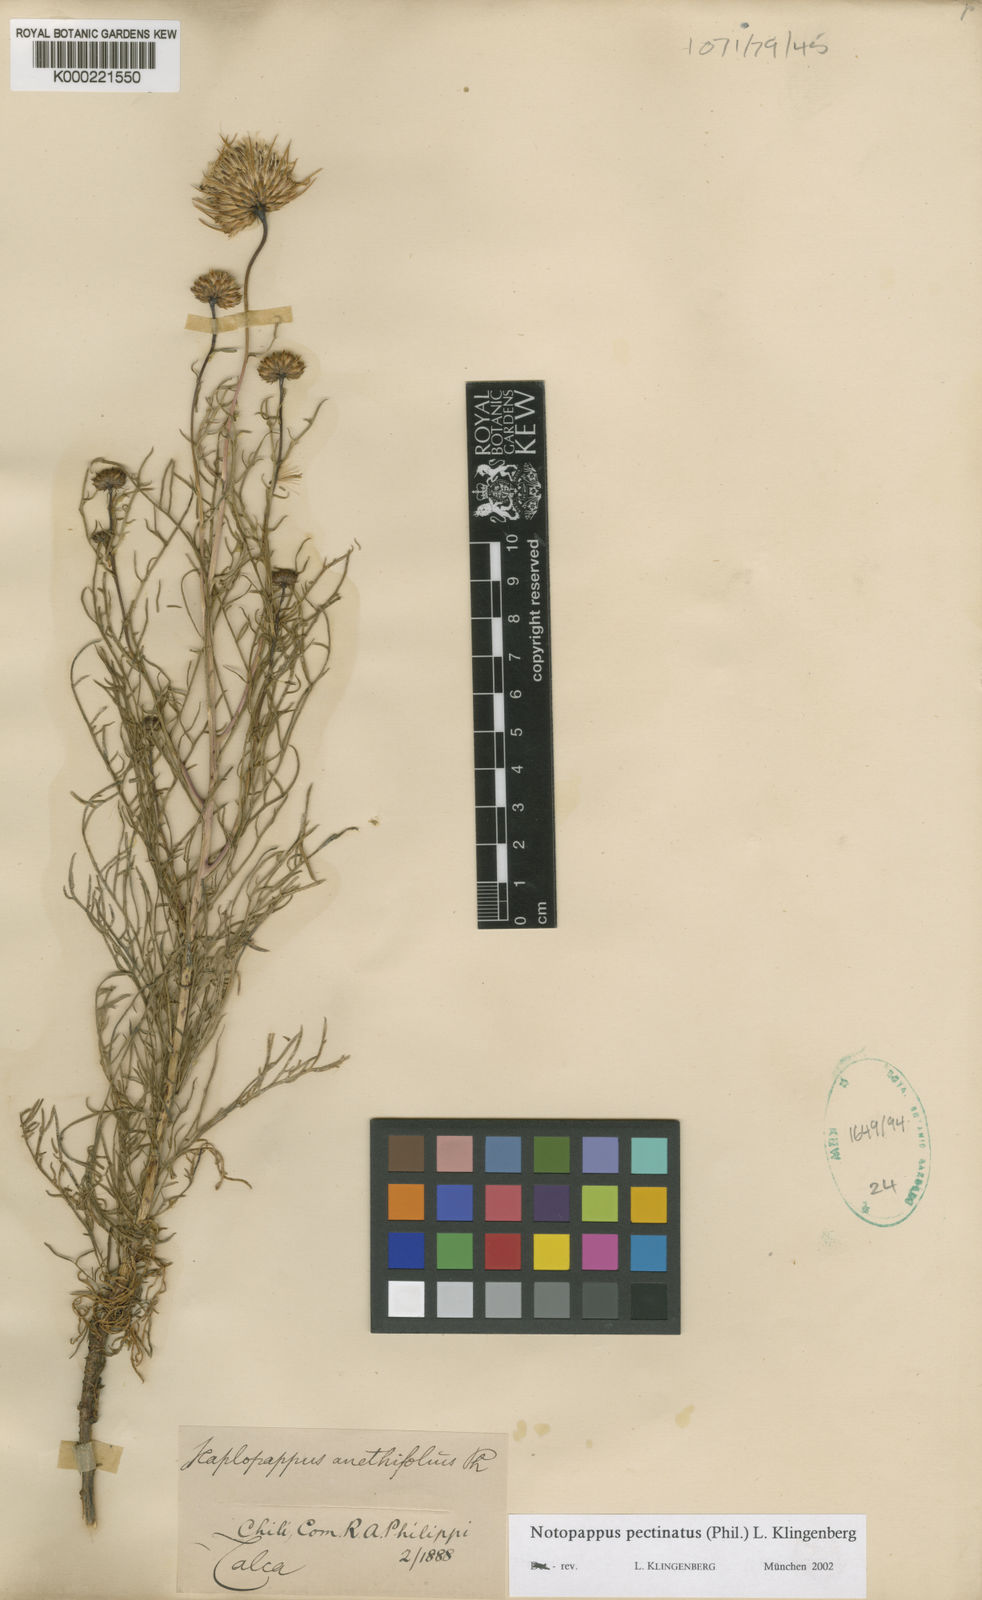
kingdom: Plantae
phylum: Tracheophyta
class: Magnoliopsida
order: Asterales
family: Asteraceae
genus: Grindelia
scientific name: Grindelia anethifolia
